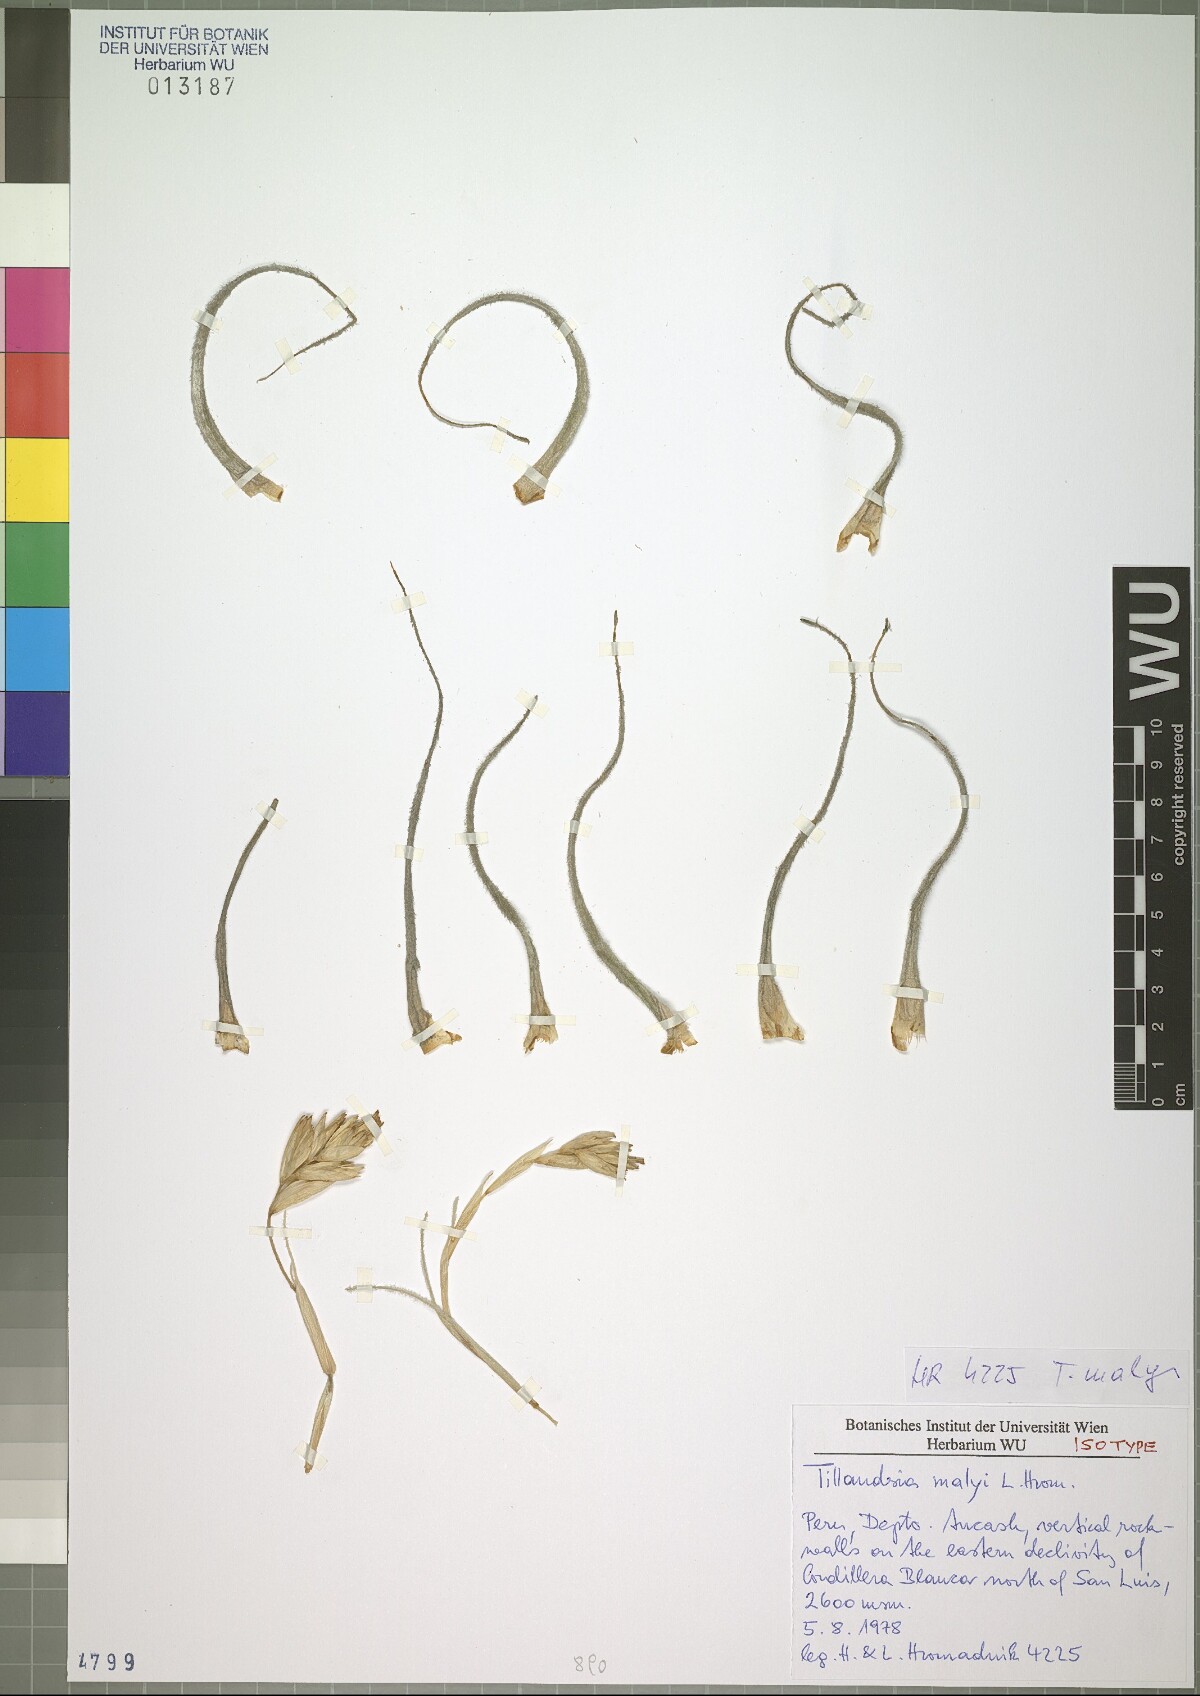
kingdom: Plantae
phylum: Tracheophyta
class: Liliopsida
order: Poales
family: Bromeliaceae
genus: Tillandsia
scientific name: Tillandsia malyi
